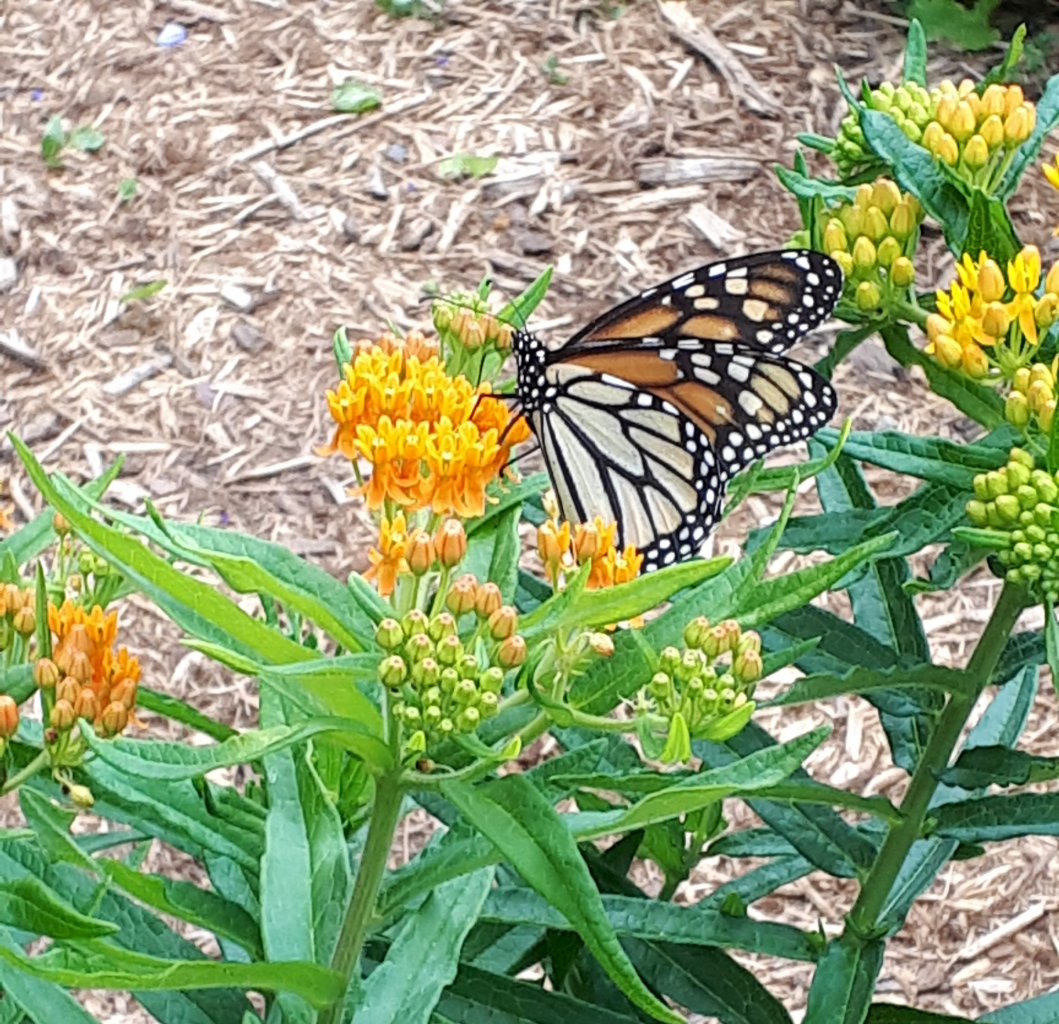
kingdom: Animalia
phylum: Arthropoda
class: Insecta
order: Lepidoptera
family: Nymphalidae
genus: Danaus
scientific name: Danaus plexippus
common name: Monarch
